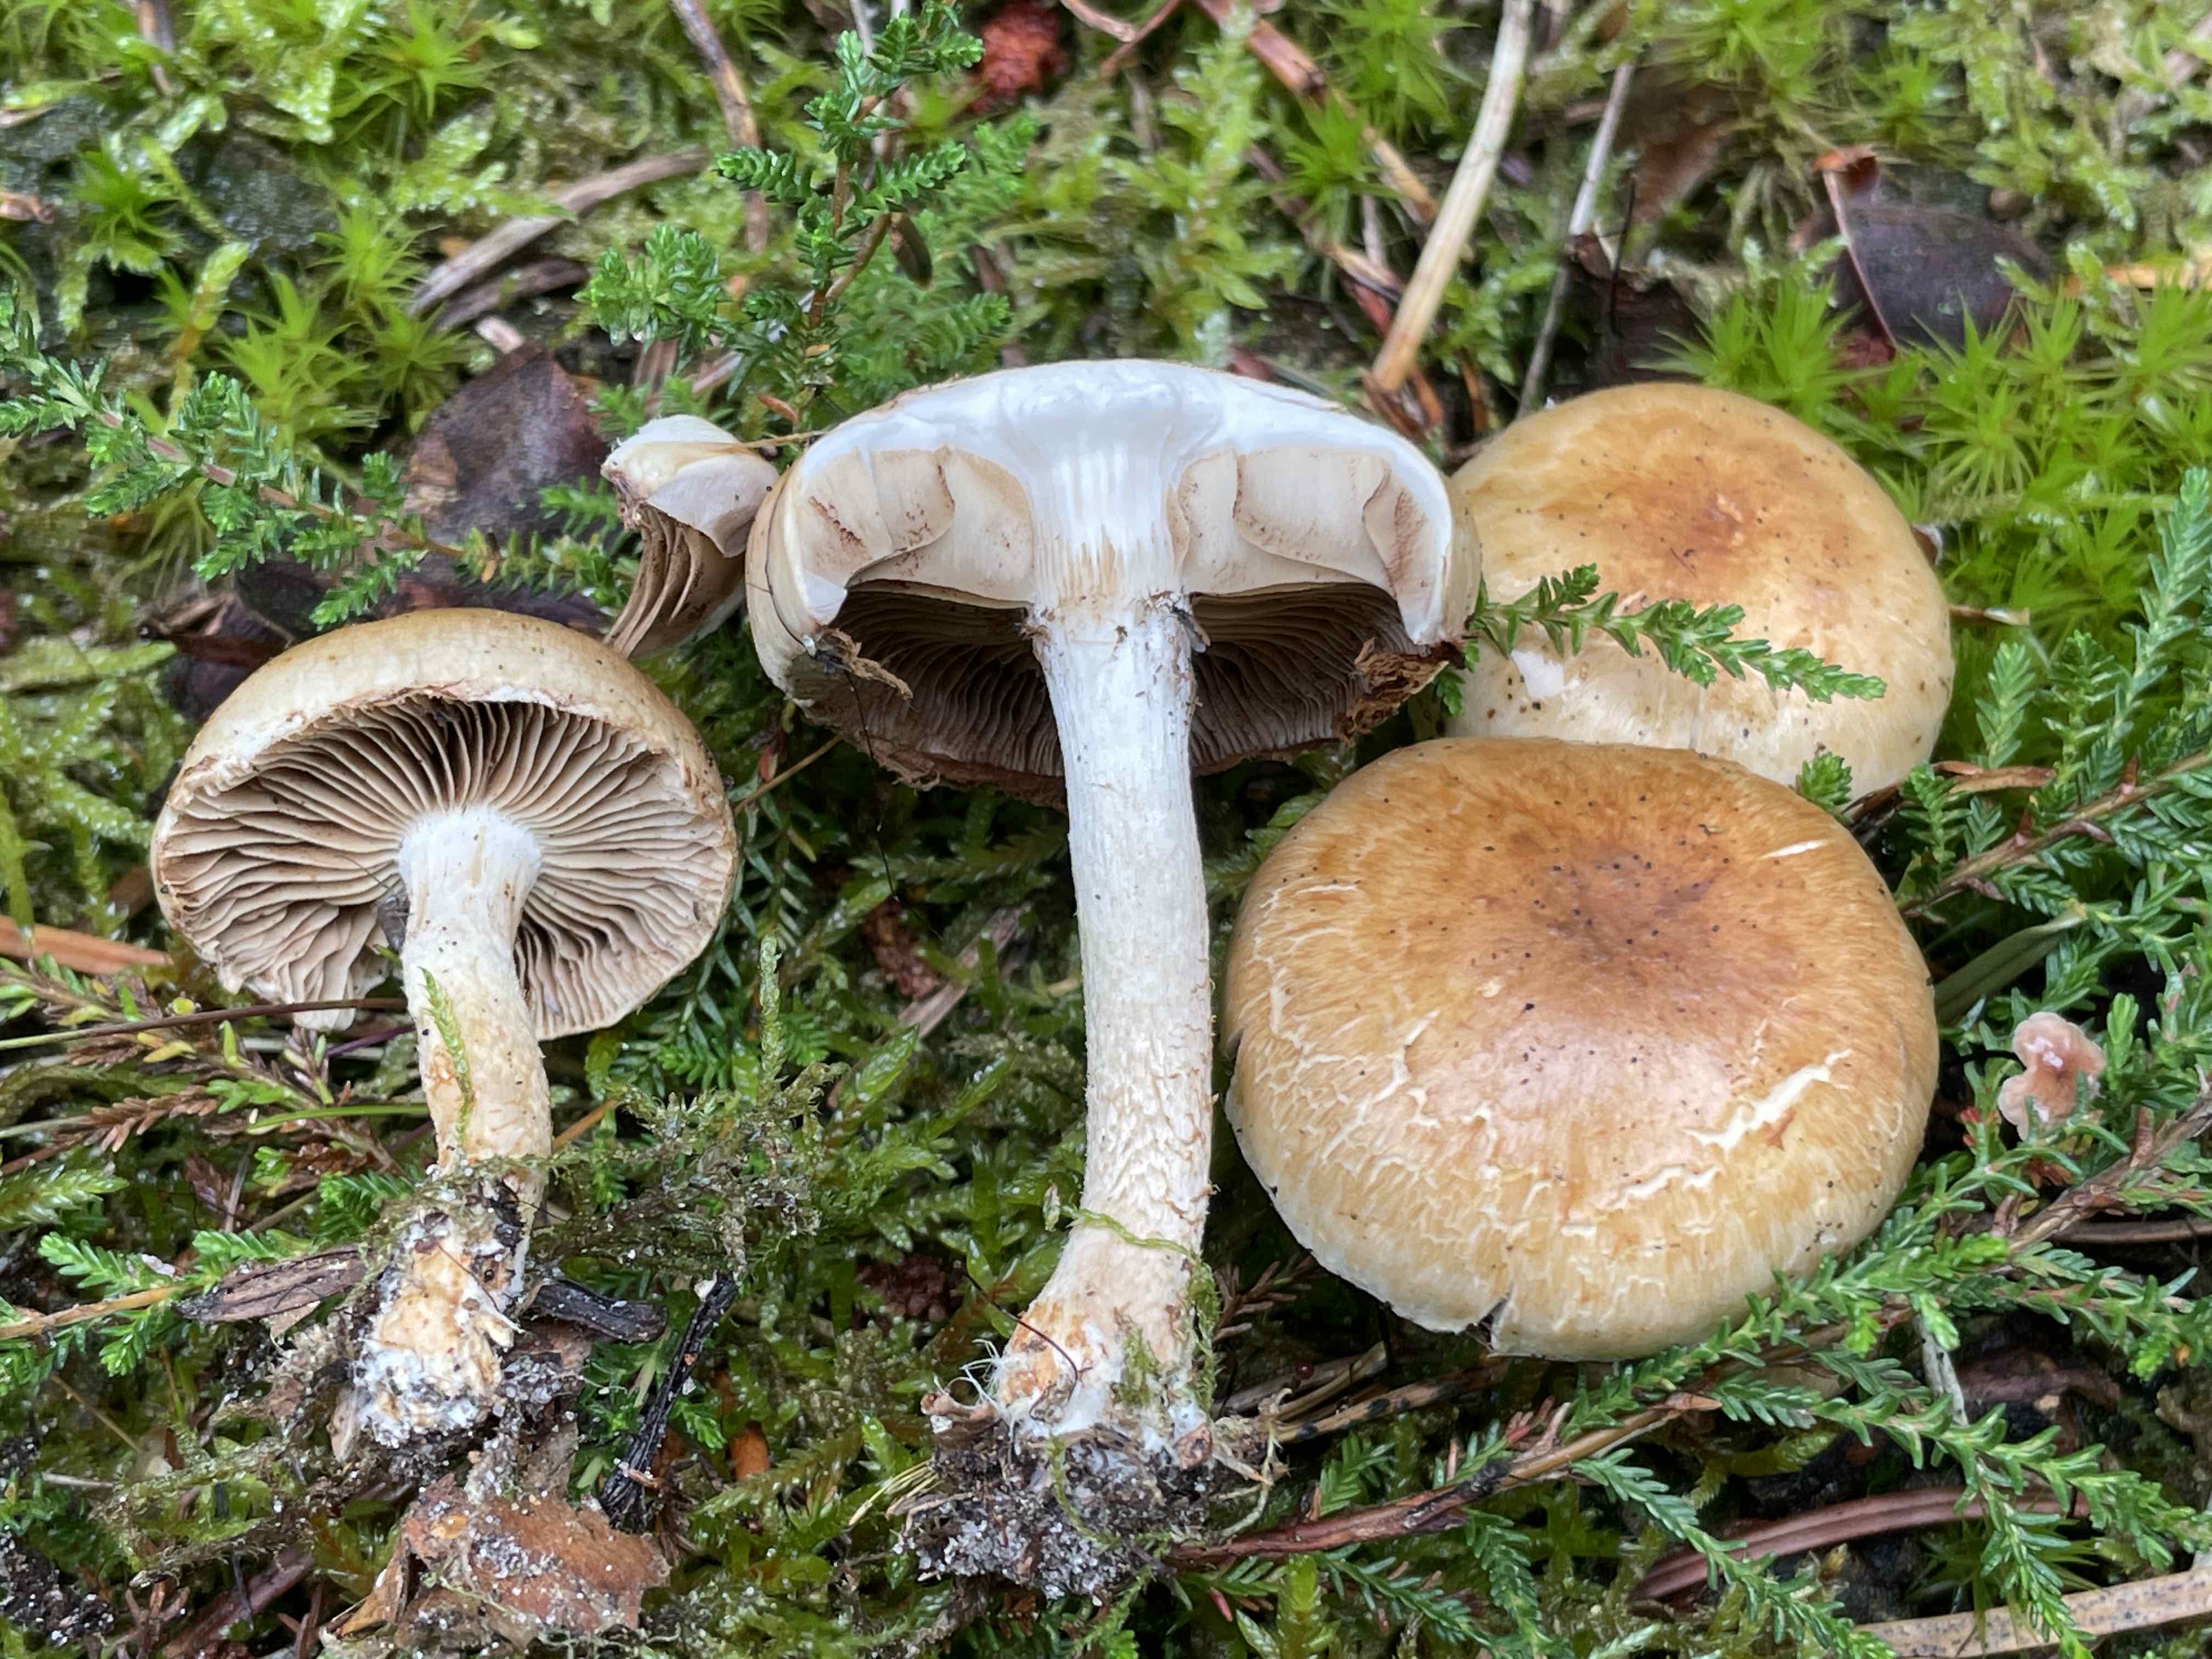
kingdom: Fungi
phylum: Basidiomycota
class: Agaricomycetes
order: Agaricales
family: Cortinariaceae
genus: Cortinarius
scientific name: Cortinarius
